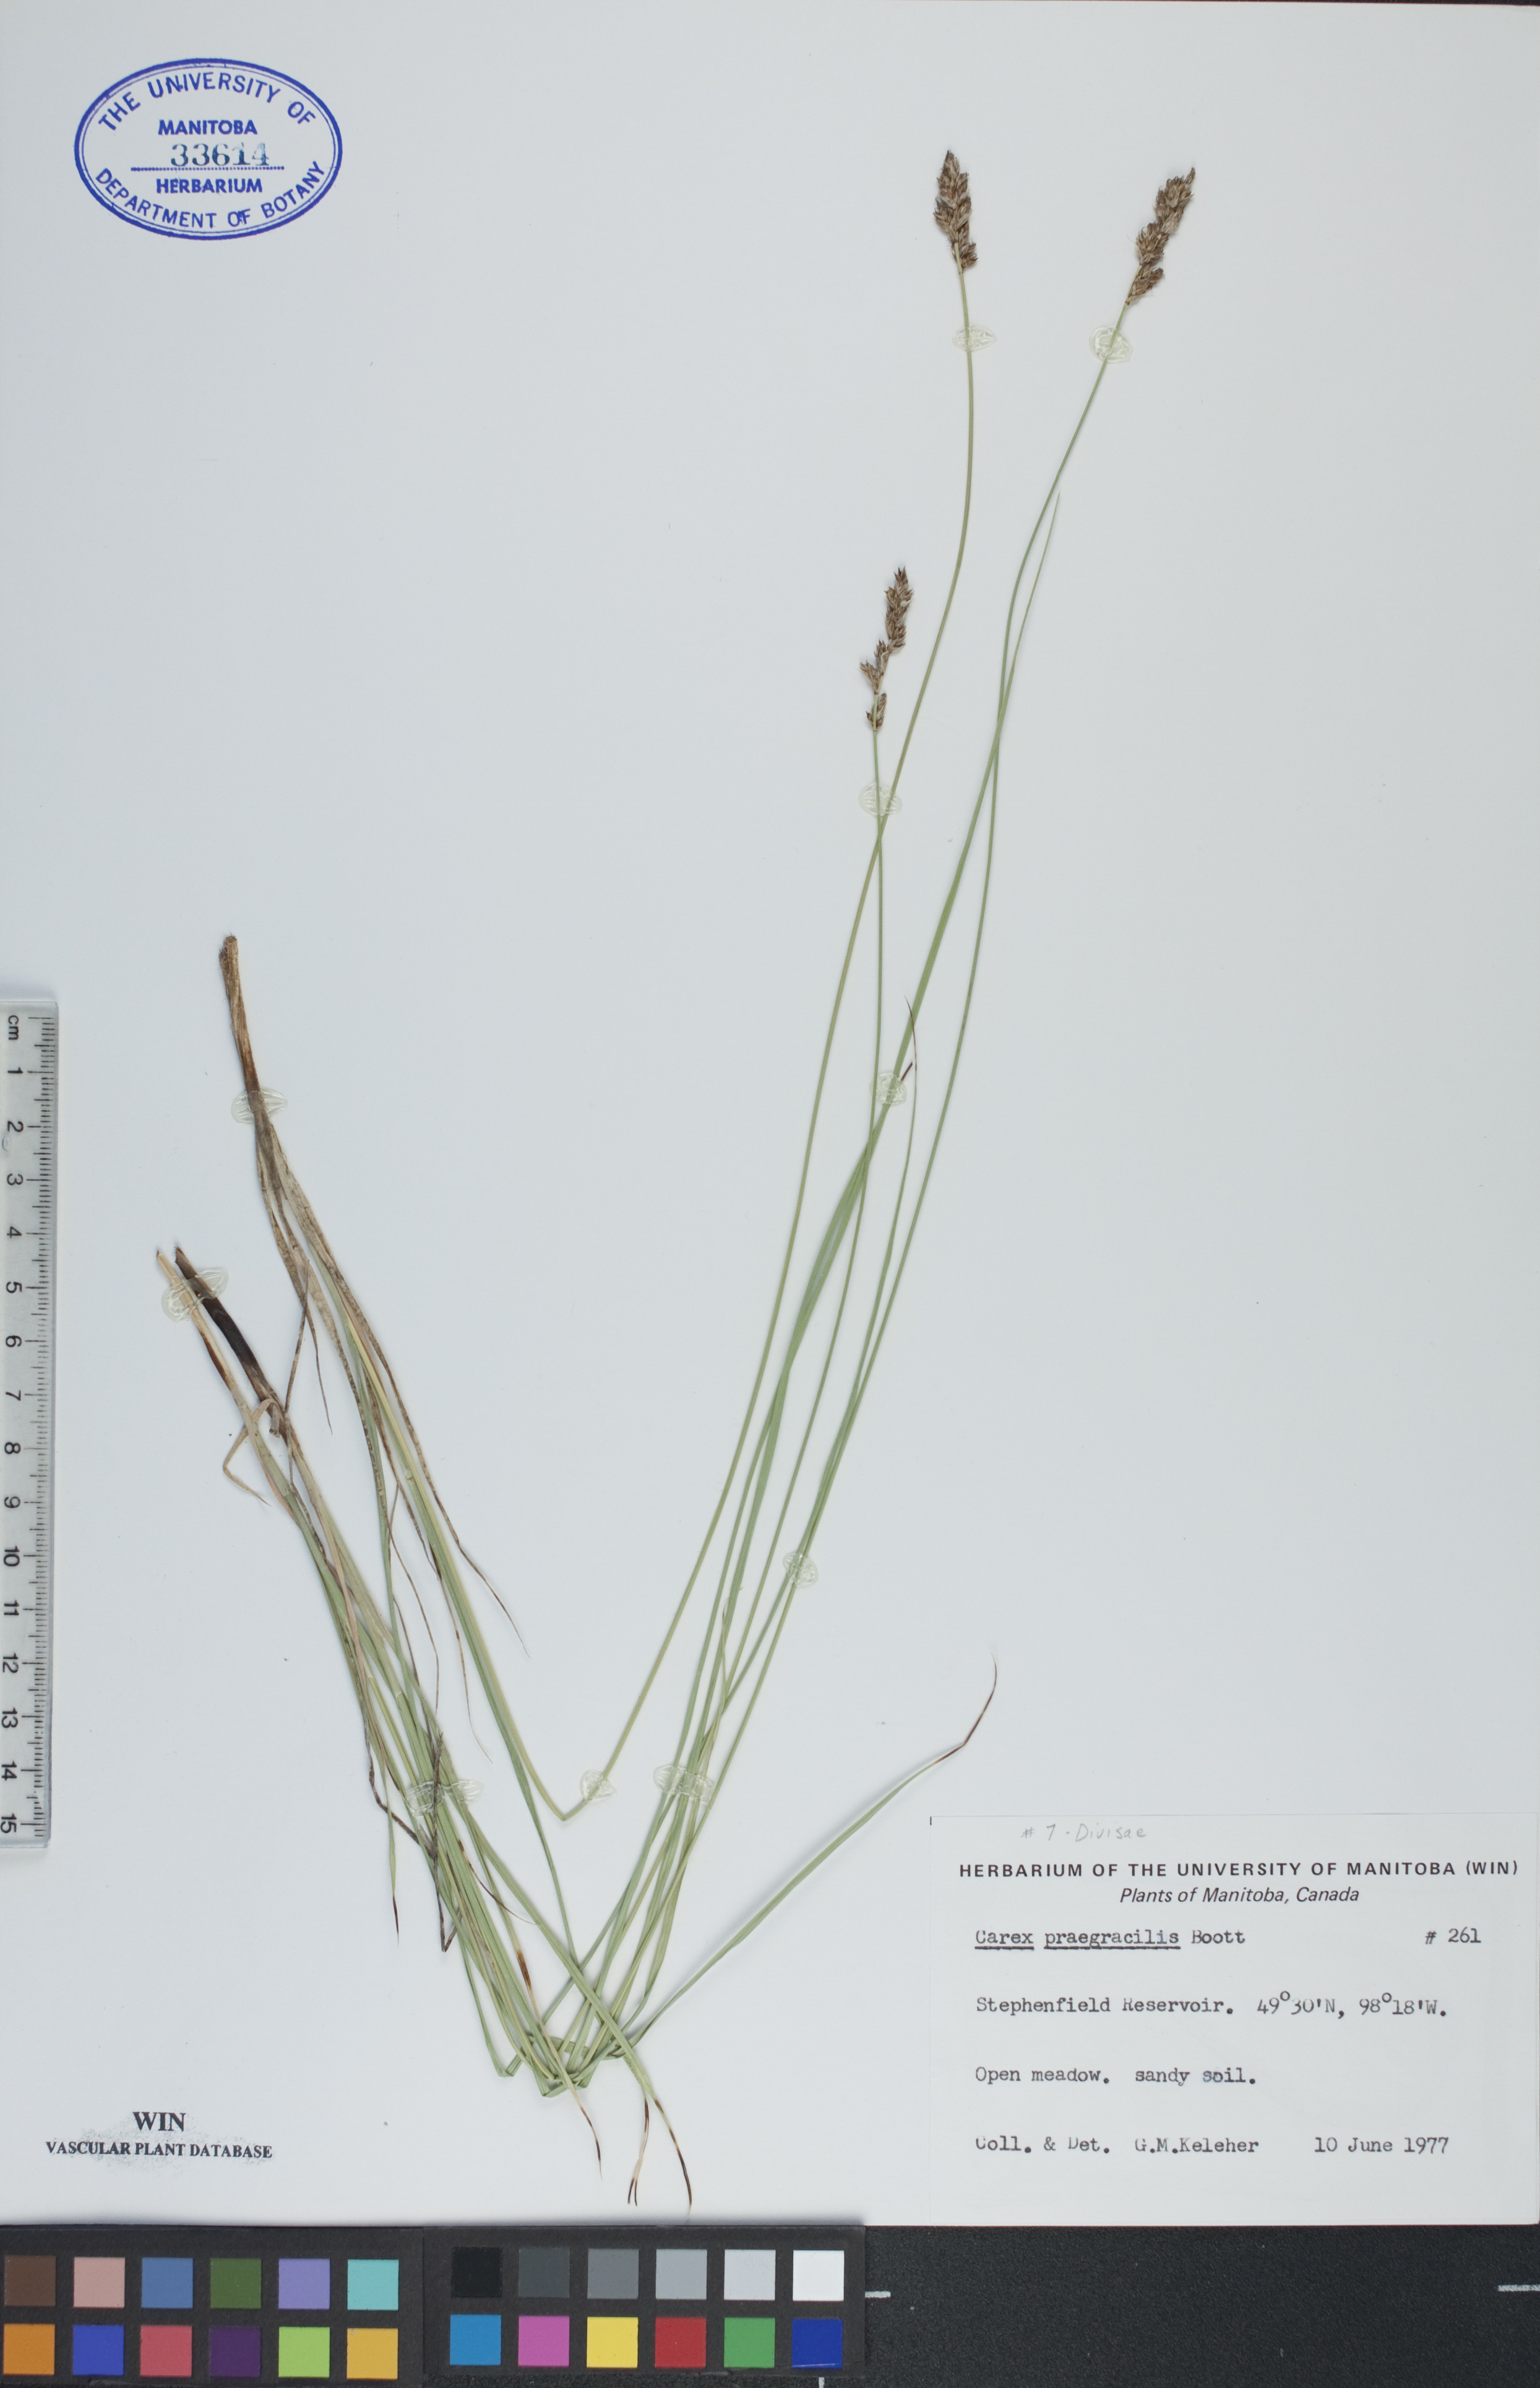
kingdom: Plantae
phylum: Tracheophyta
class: Liliopsida
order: Poales
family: Cyperaceae
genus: Carex
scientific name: Carex praegracilis
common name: Black creeper sedge
